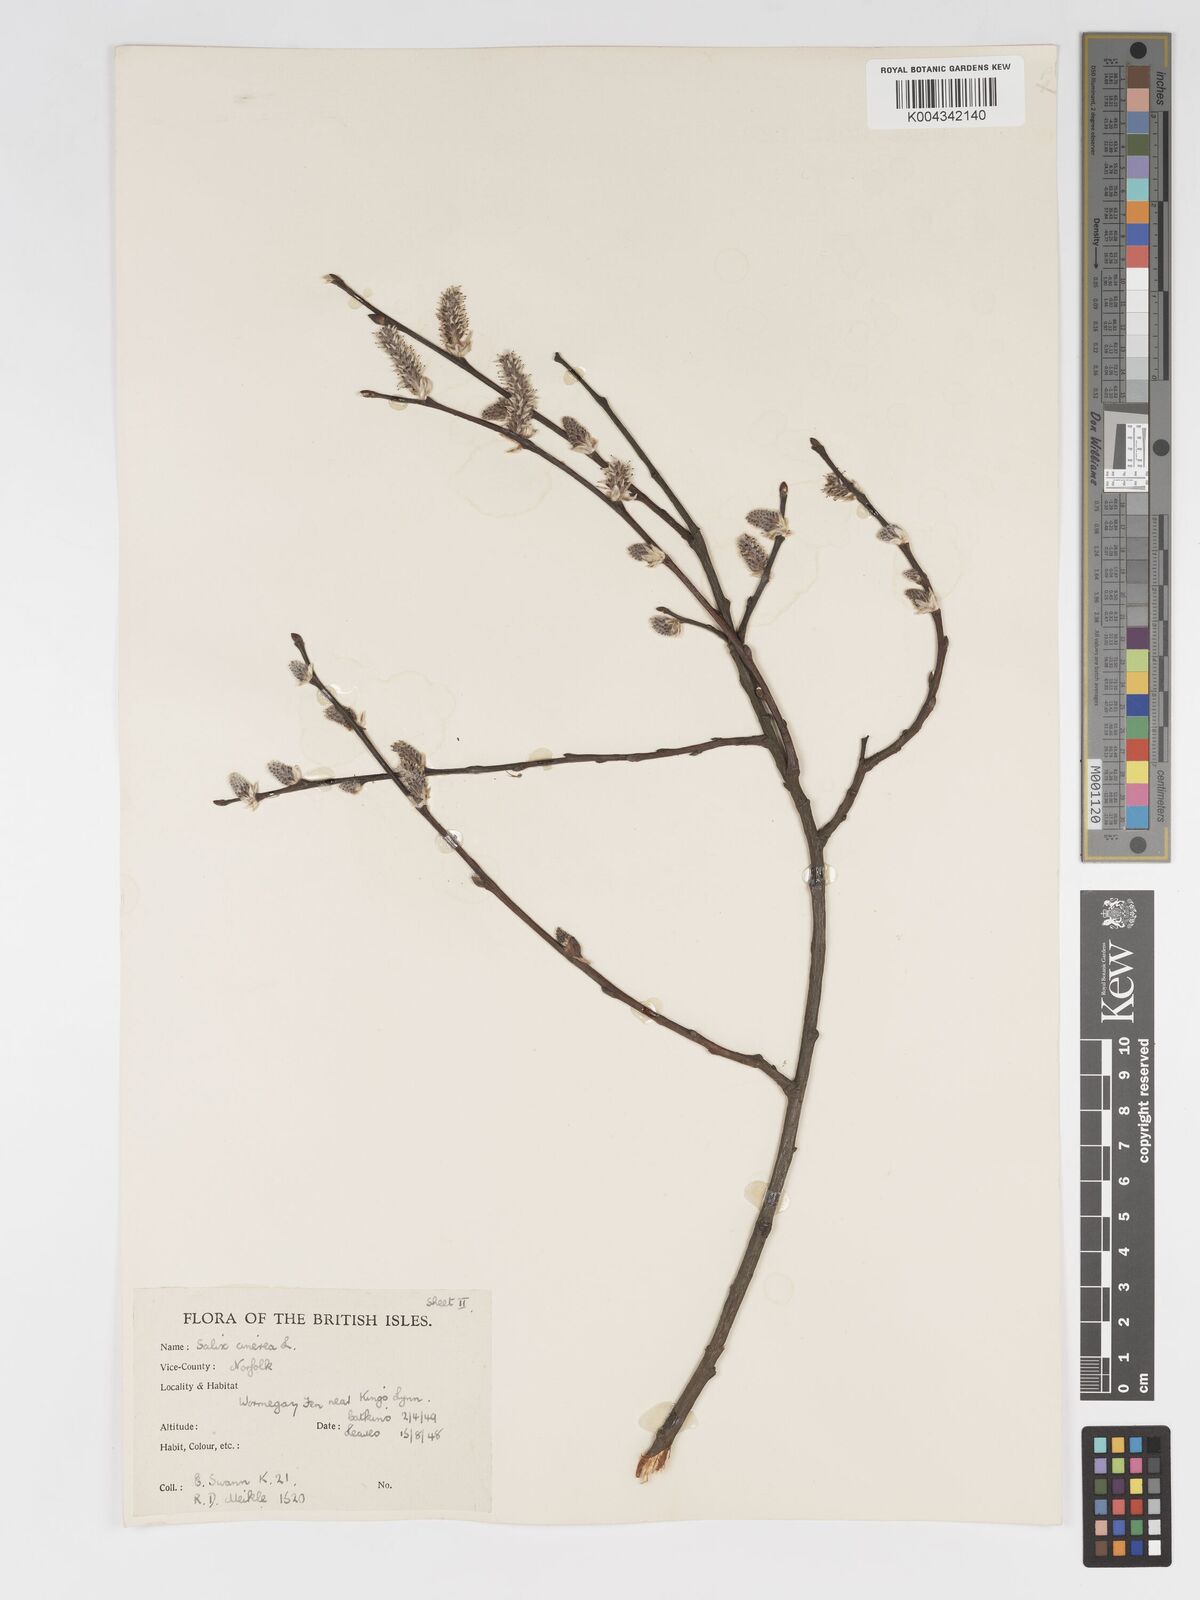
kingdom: Plantae
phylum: Tracheophyta
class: Magnoliopsida
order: Malpighiales
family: Salicaceae
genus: Salix
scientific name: Salix
